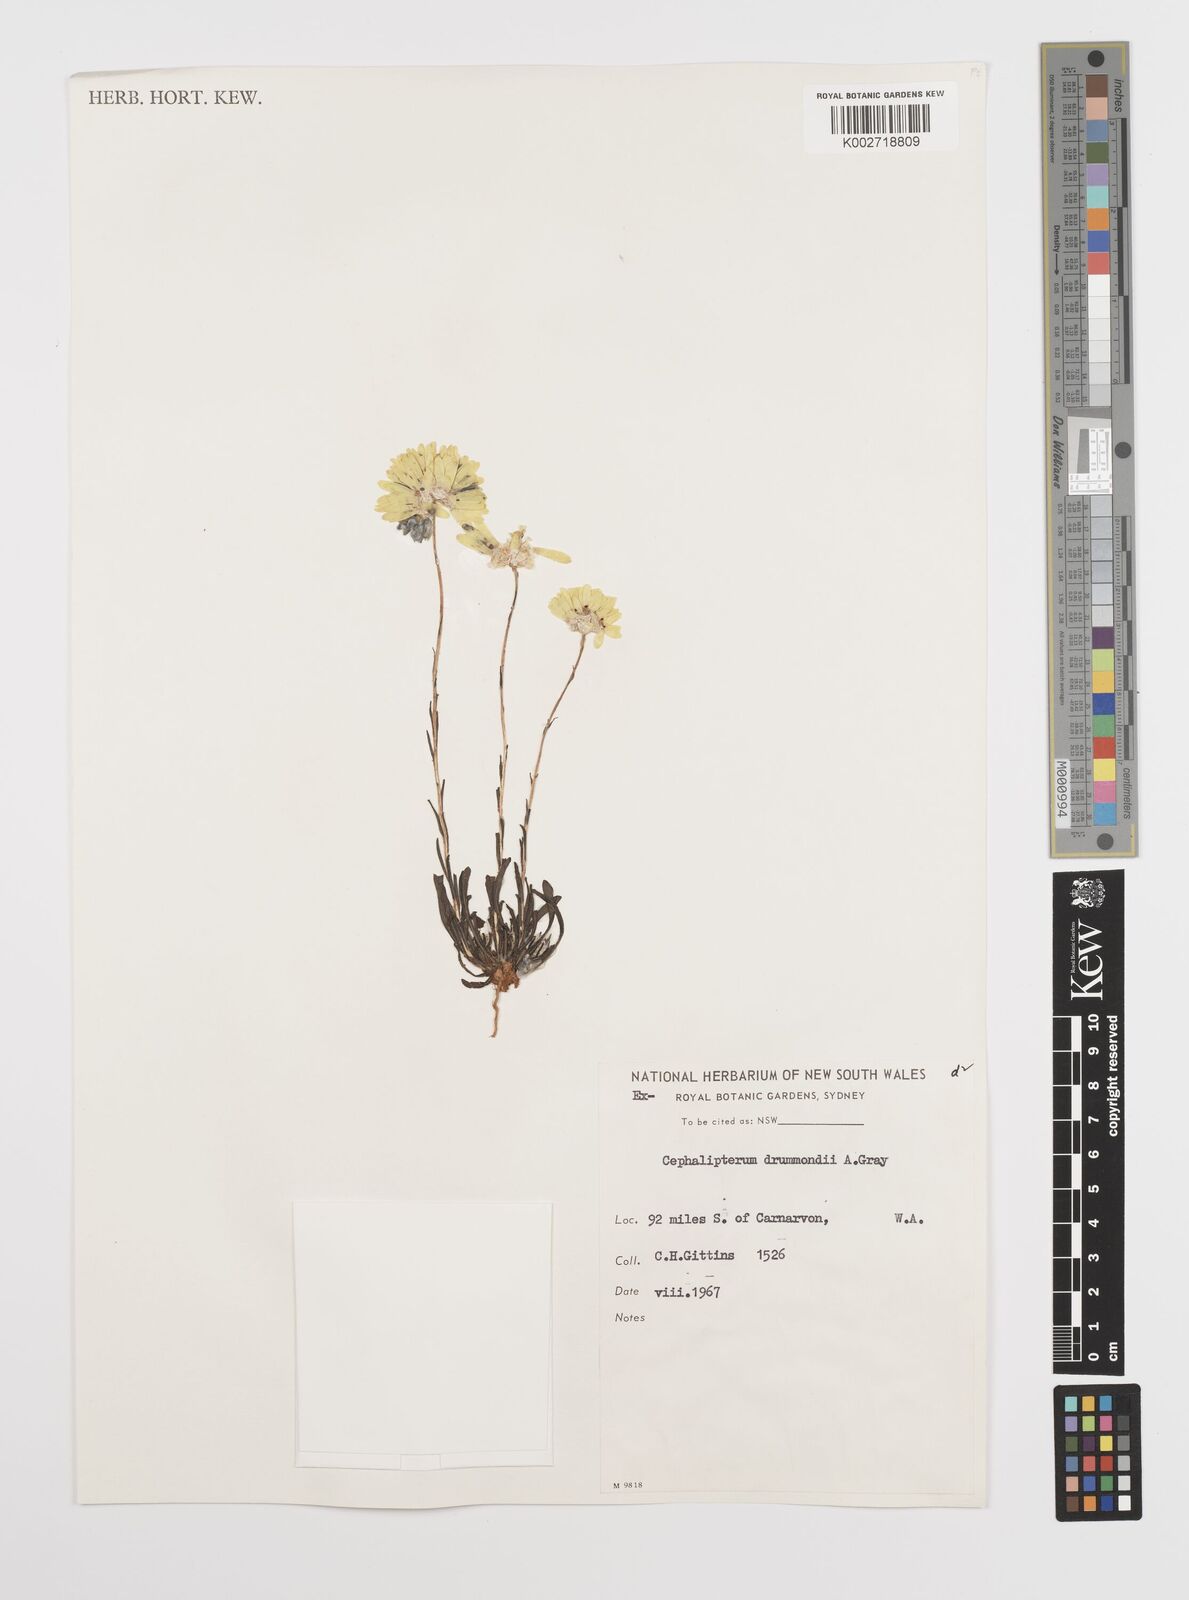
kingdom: Plantae
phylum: Tracheophyta
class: Magnoliopsida
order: Asterales
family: Asteraceae
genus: Cephalipterum
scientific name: Cephalipterum drummondii
